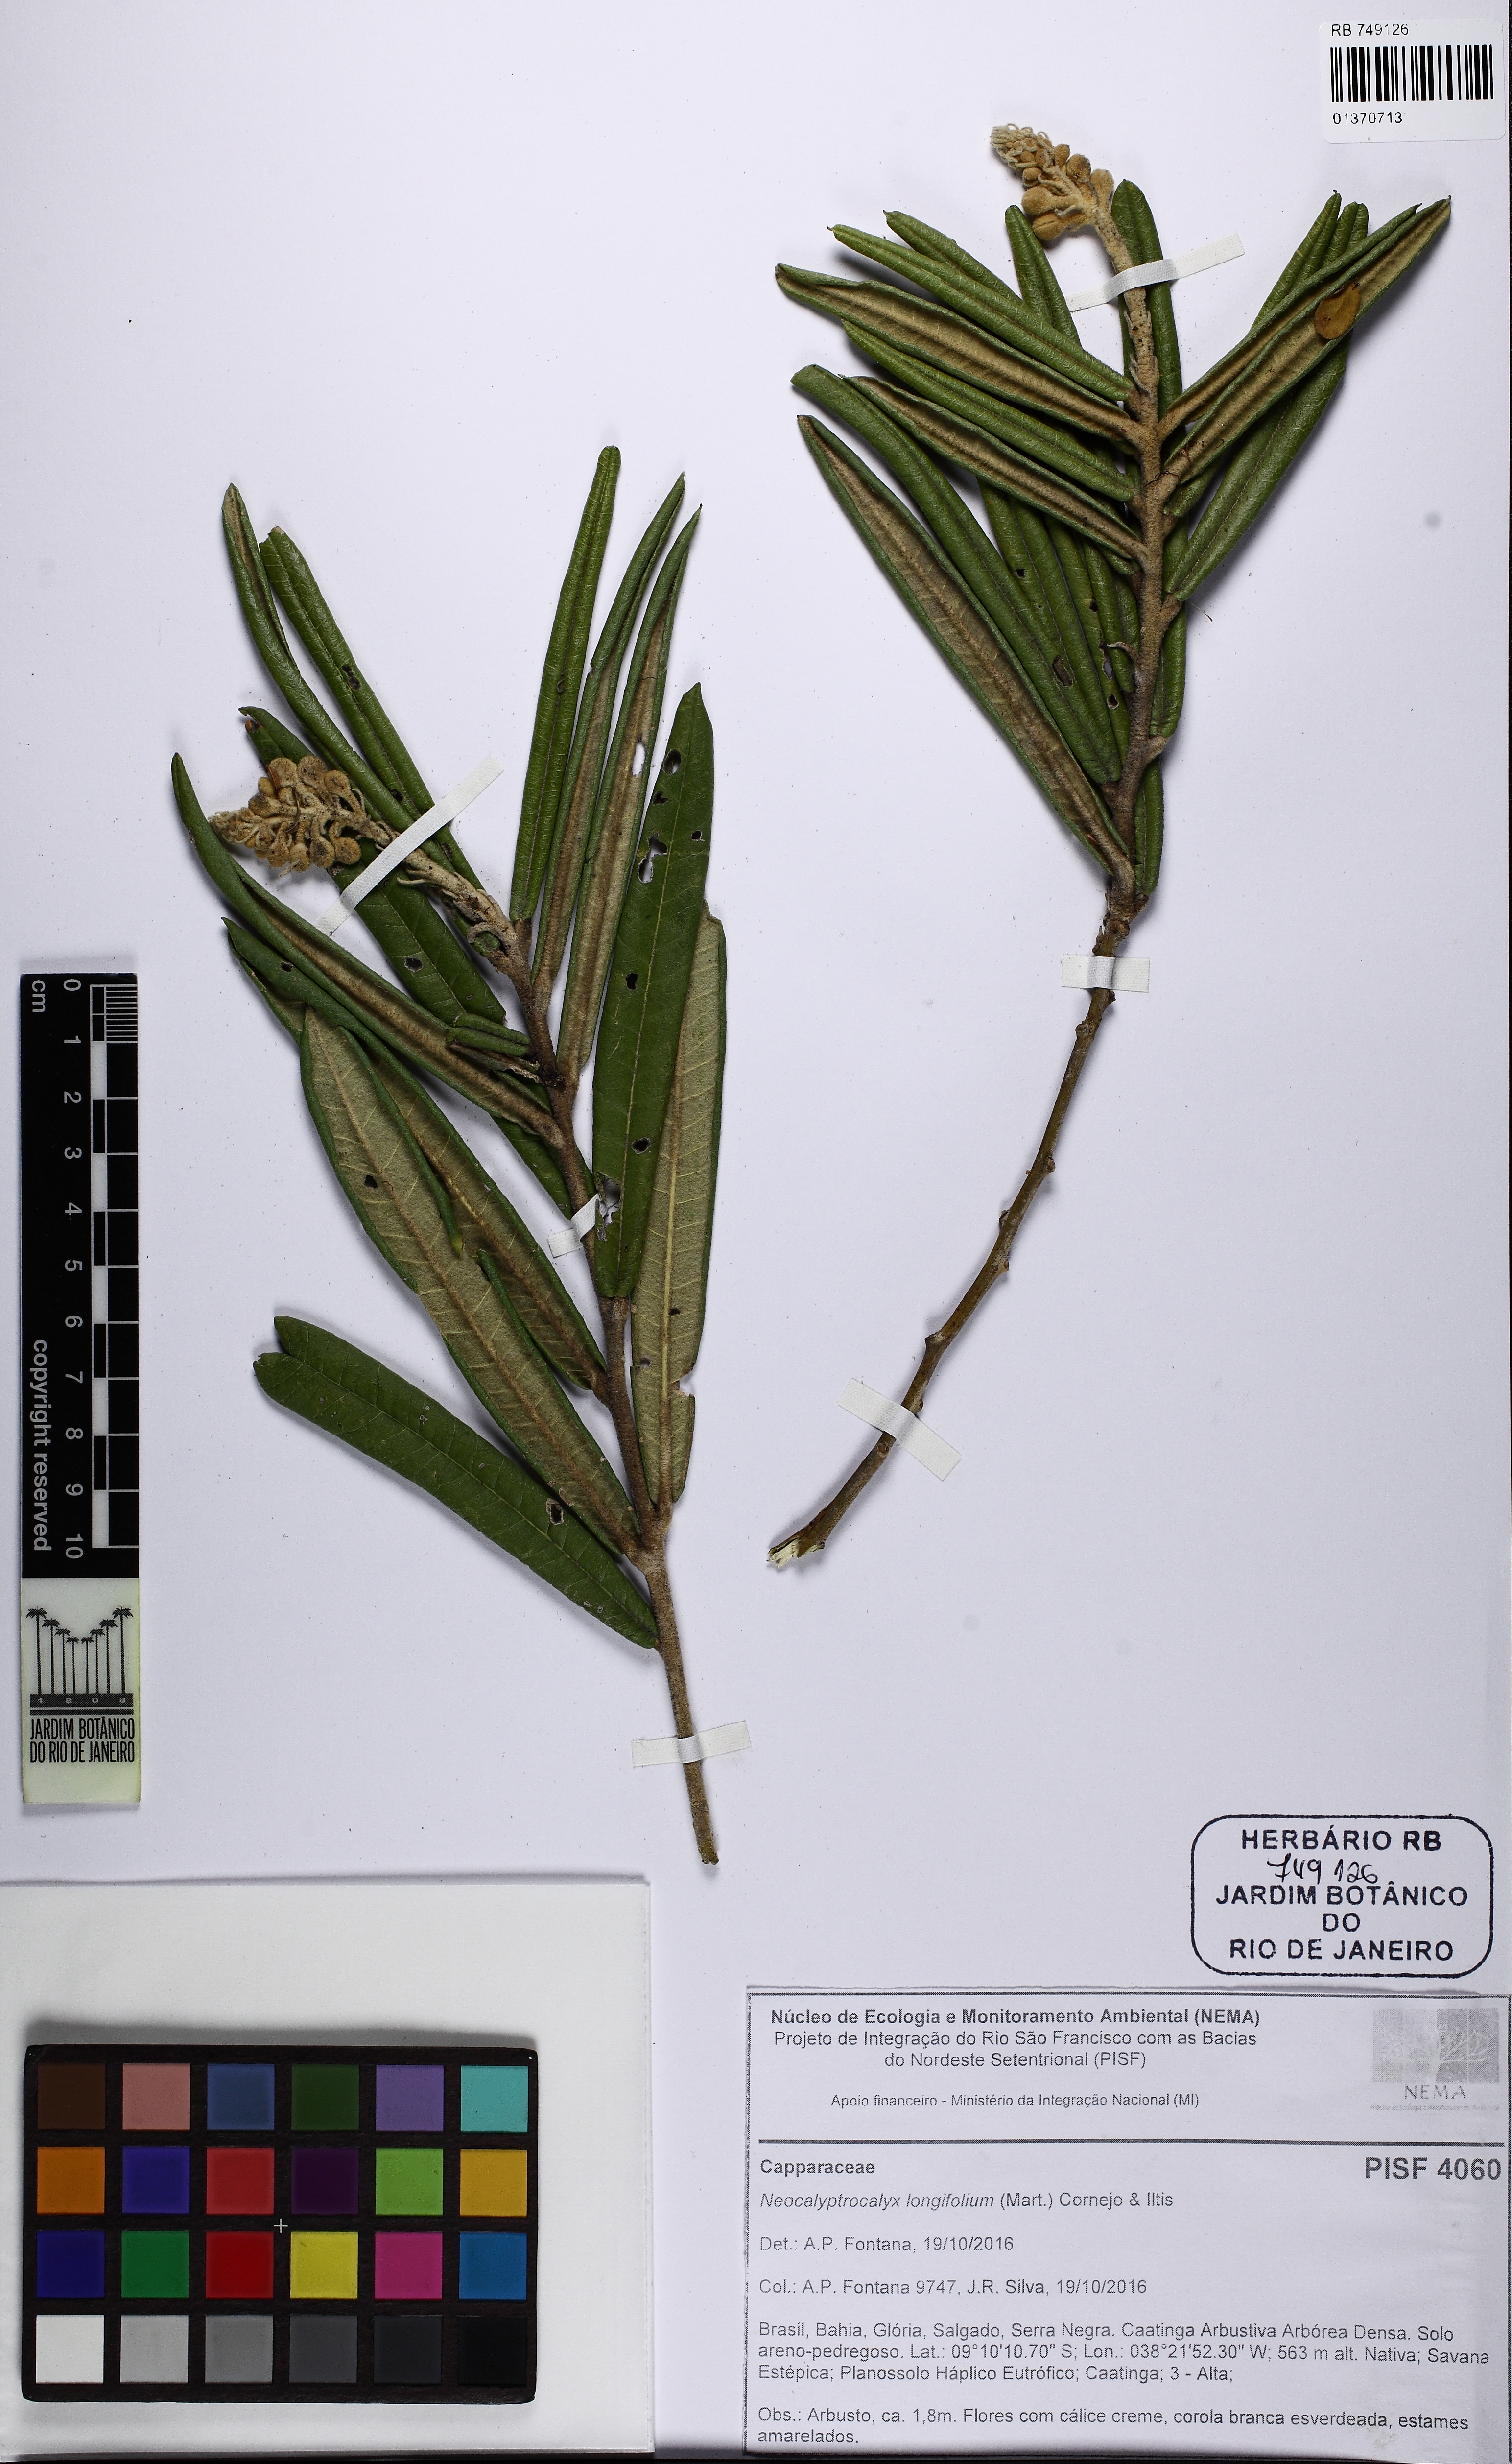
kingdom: Plantae
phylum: Tracheophyta
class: Magnoliopsida
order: Brassicales
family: Capparaceae
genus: Neocalyptrocalyx
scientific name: Neocalyptrocalyx longifolium
